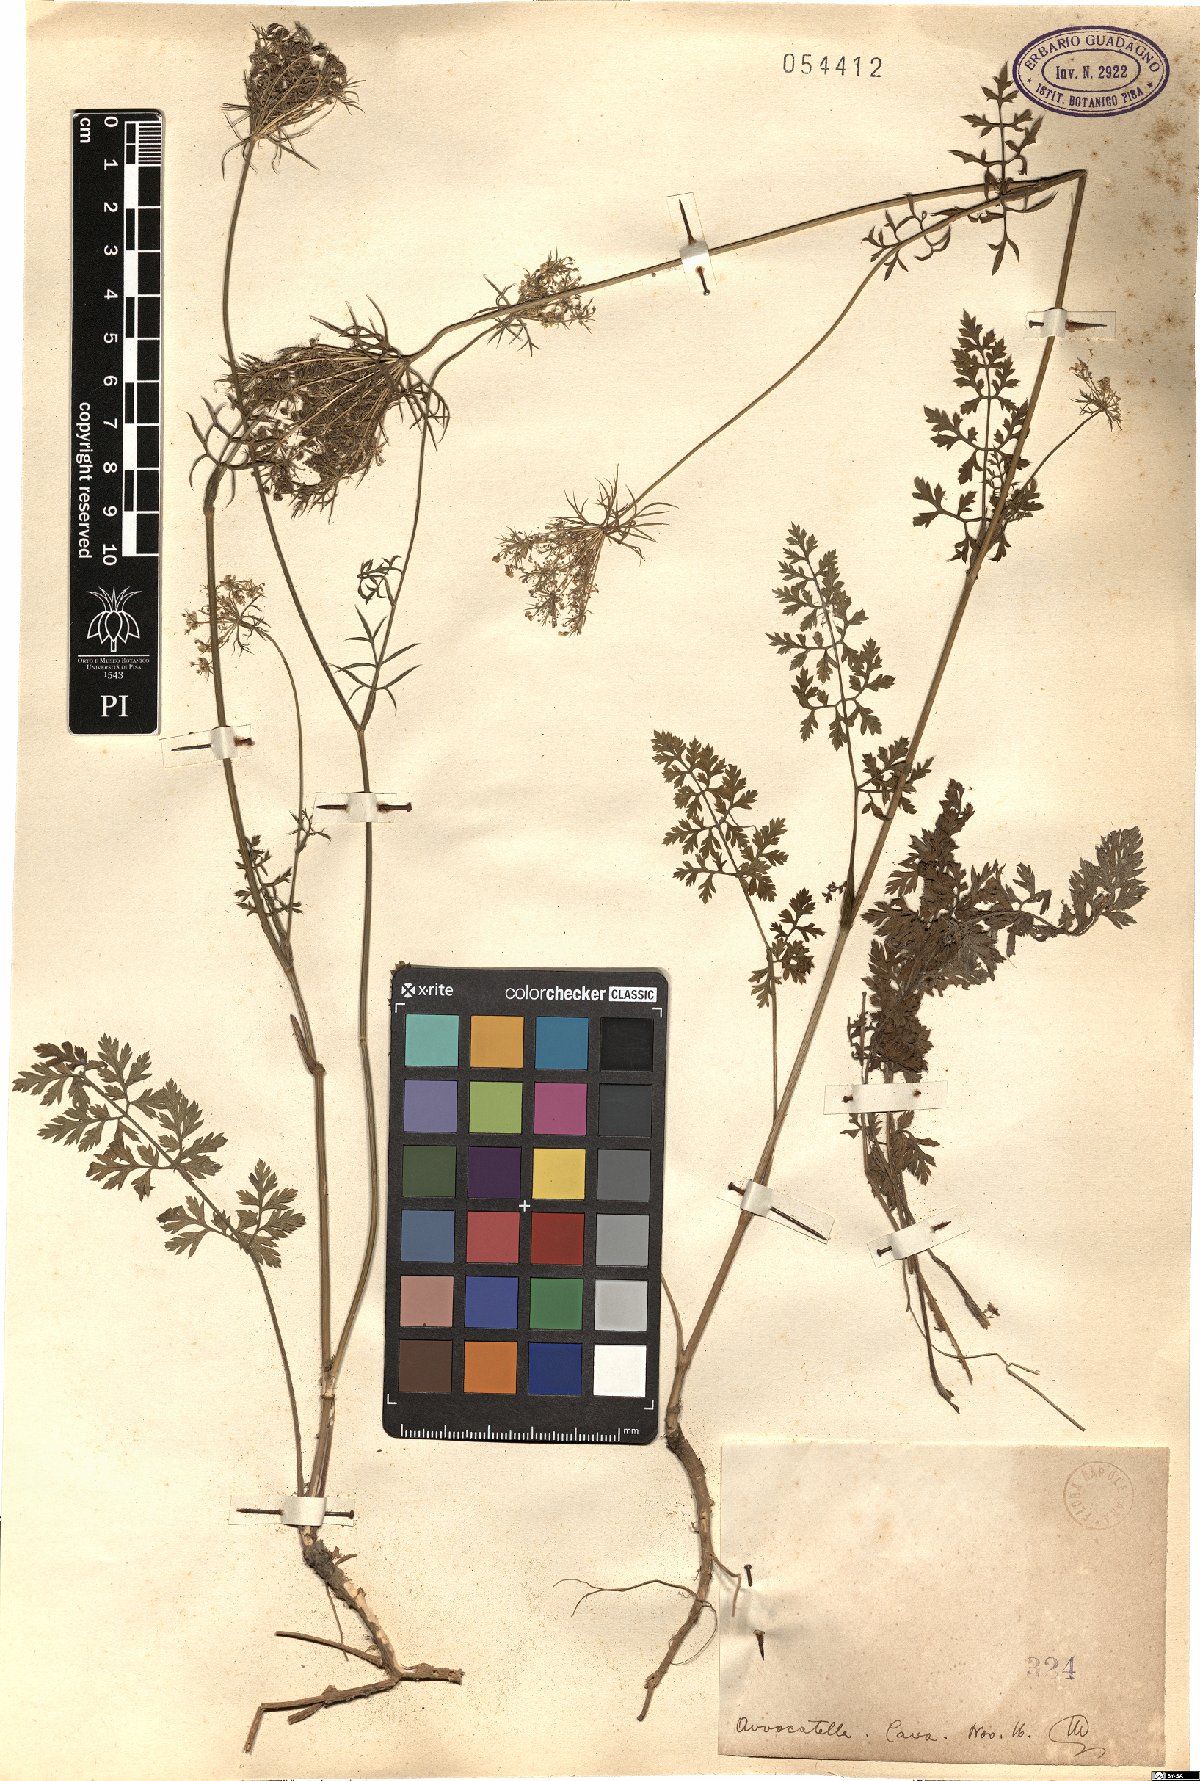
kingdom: Plantae
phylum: Tracheophyta
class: Magnoliopsida
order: Apiales
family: Apiaceae
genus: Daucus
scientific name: Daucus
